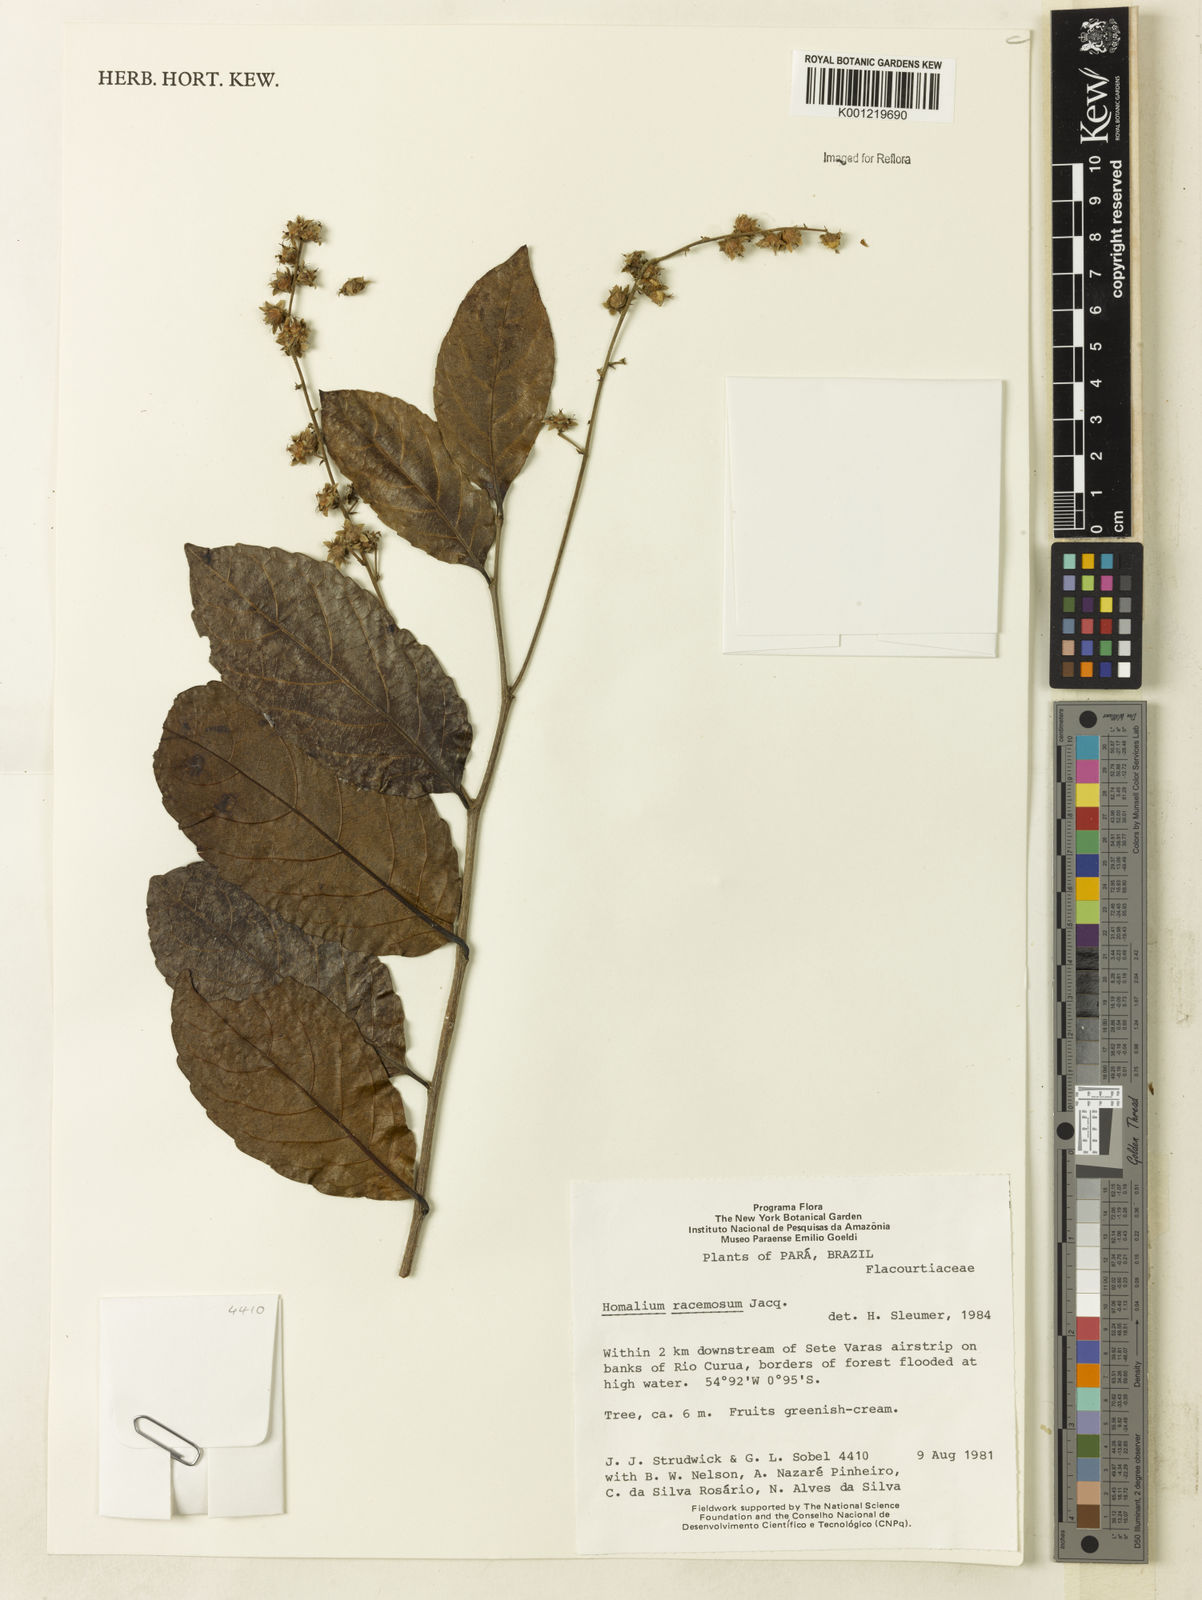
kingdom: Plantae
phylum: Tracheophyta
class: Magnoliopsida
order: Malpighiales
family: Salicaceae
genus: Homalium
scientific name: Homalium racemosum
